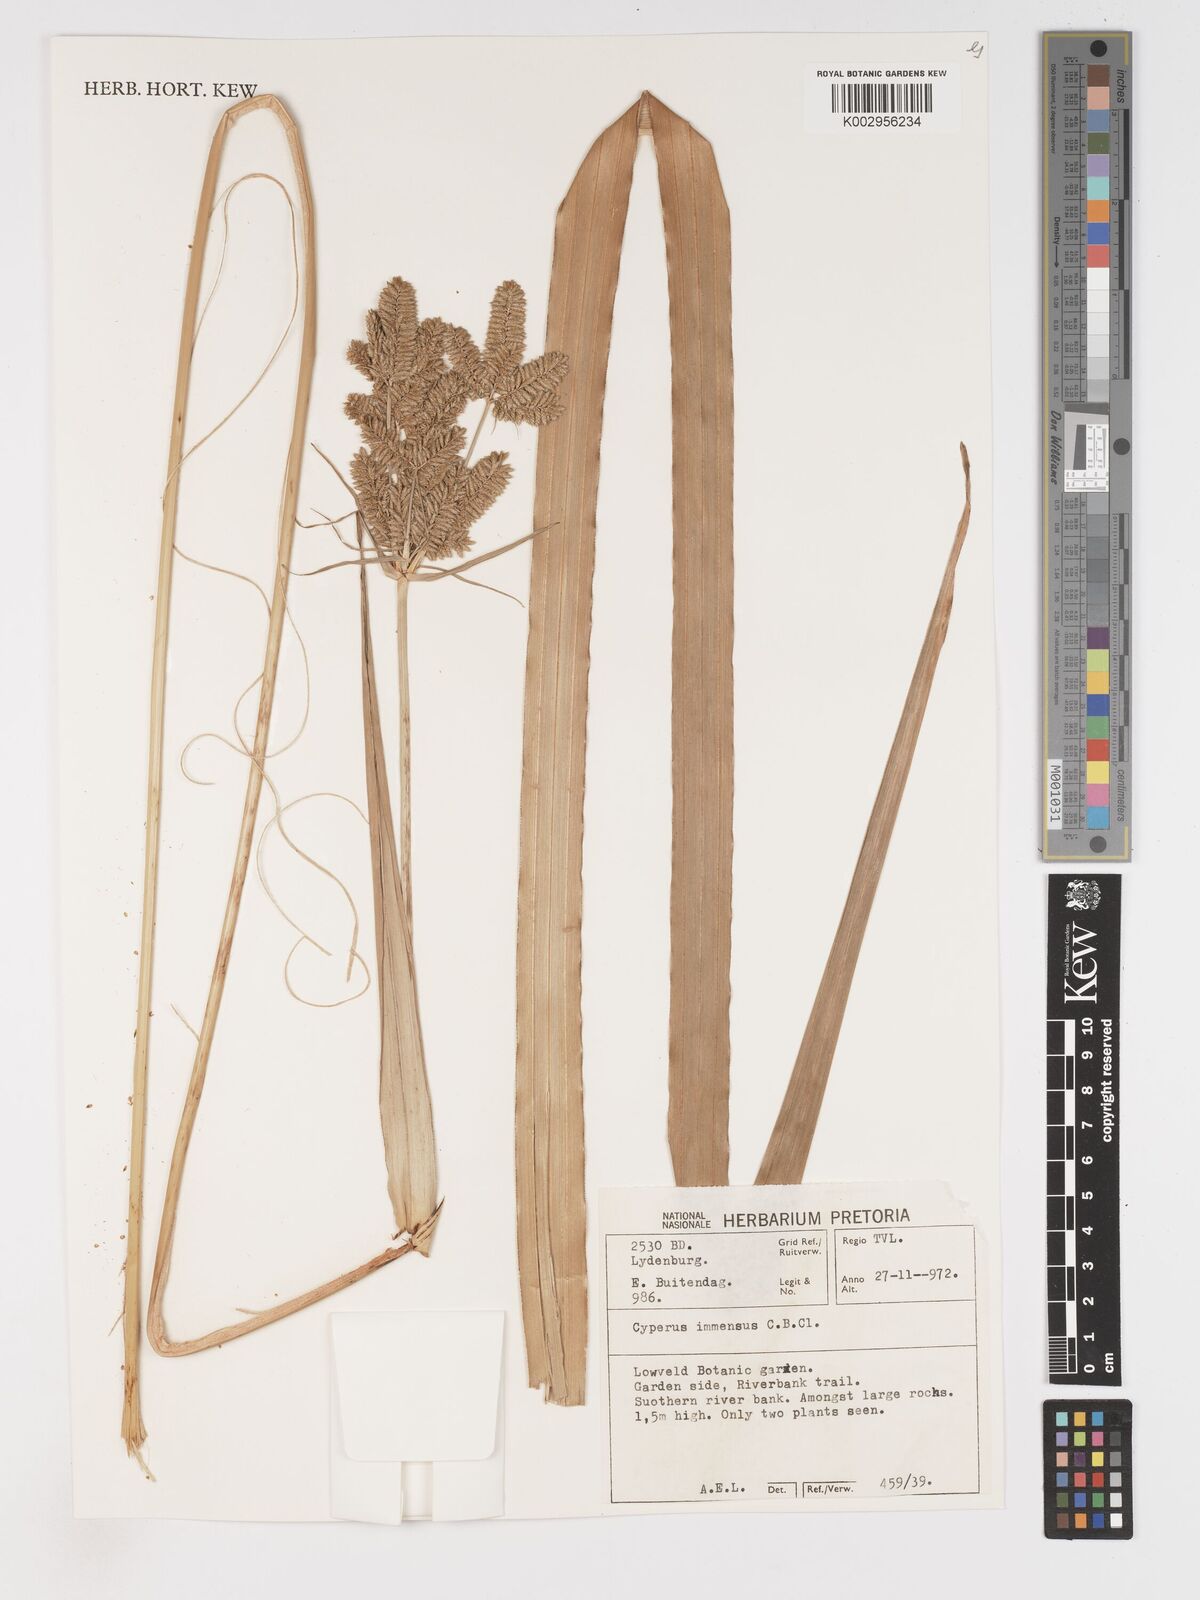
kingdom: Plantae
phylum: Tracheophyta
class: Liliopsida
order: Poales
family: Cyperaceae
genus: Cyperus
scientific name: Cyperus dives
